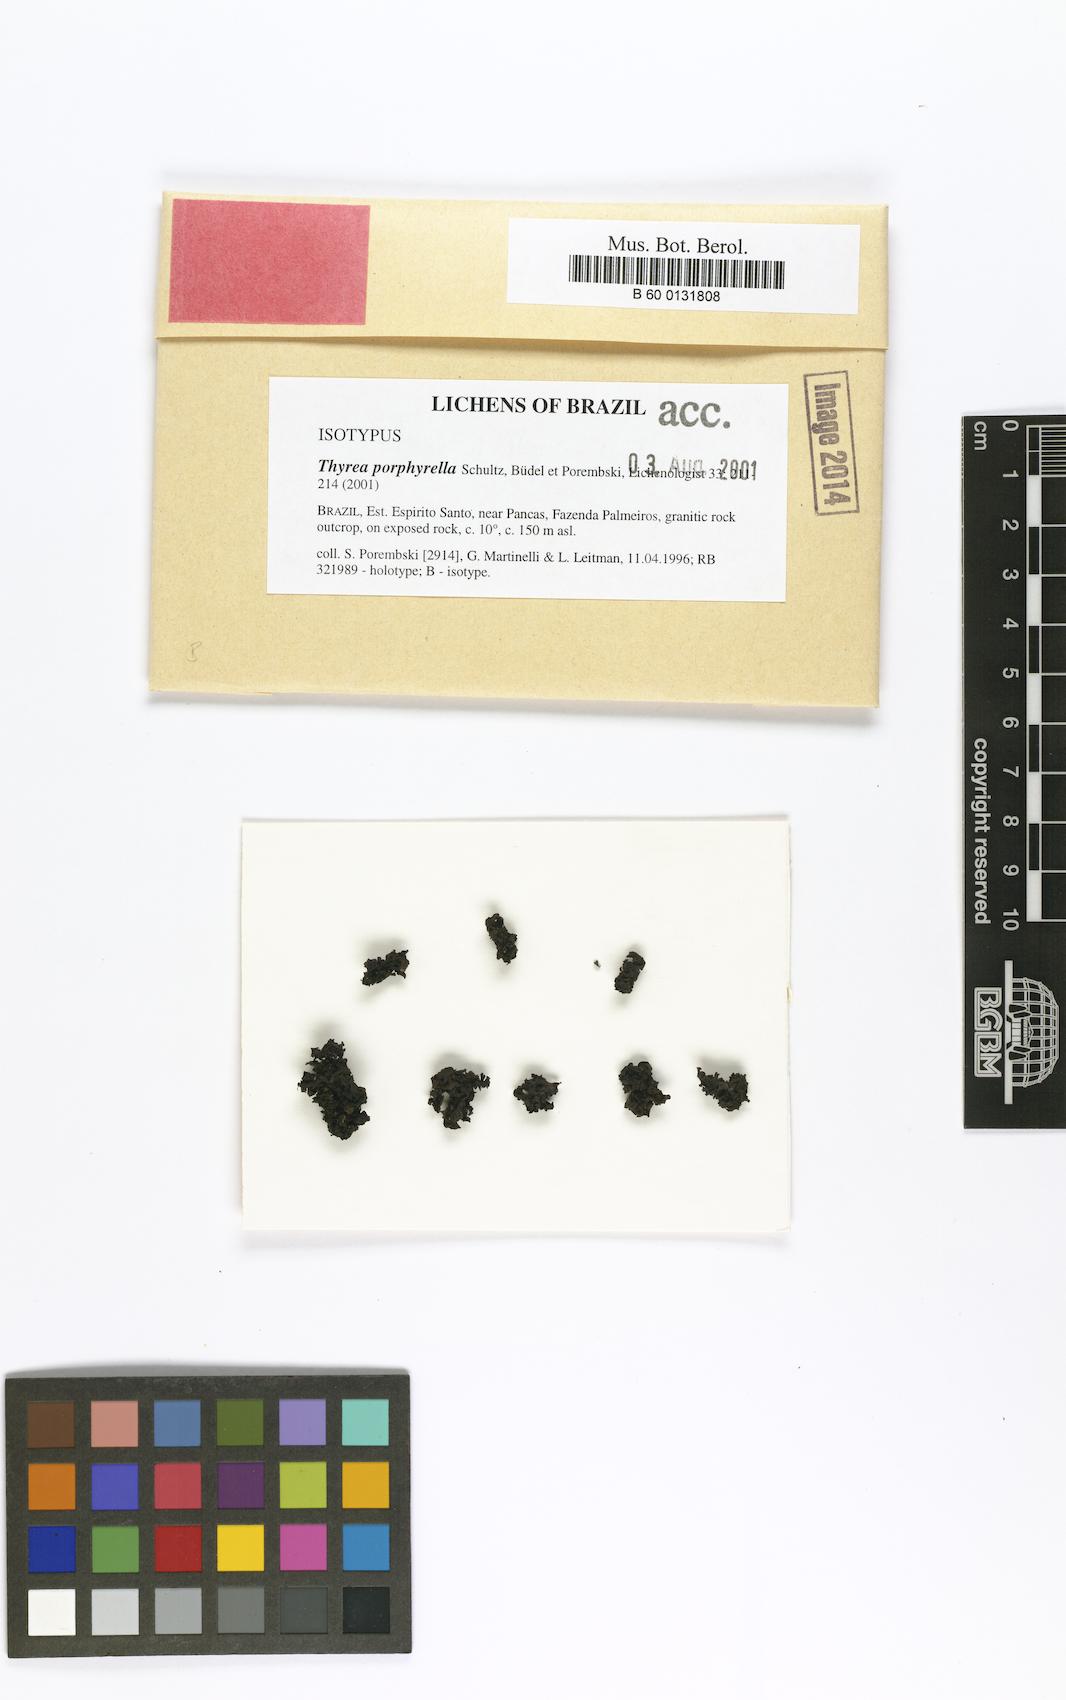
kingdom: Fungi
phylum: Ascomycota
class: Lichinomycetes
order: Lichinales
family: Lichinaceae
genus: Thyrea
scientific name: Thyrea porphyrella
